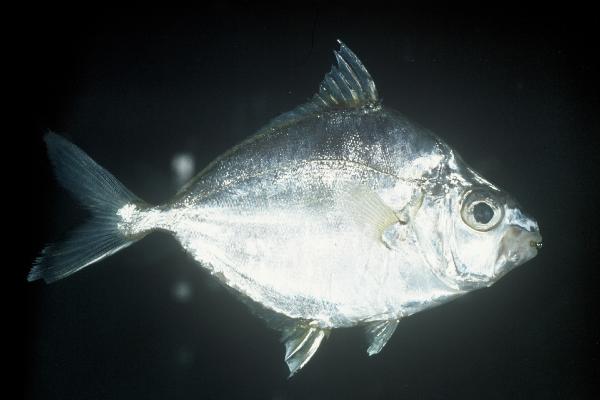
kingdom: Animalia
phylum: Chordata
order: Perciformes
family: Leiognathidae
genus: Leiognathus
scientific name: Leiognathus equulus
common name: Common ponyfish
